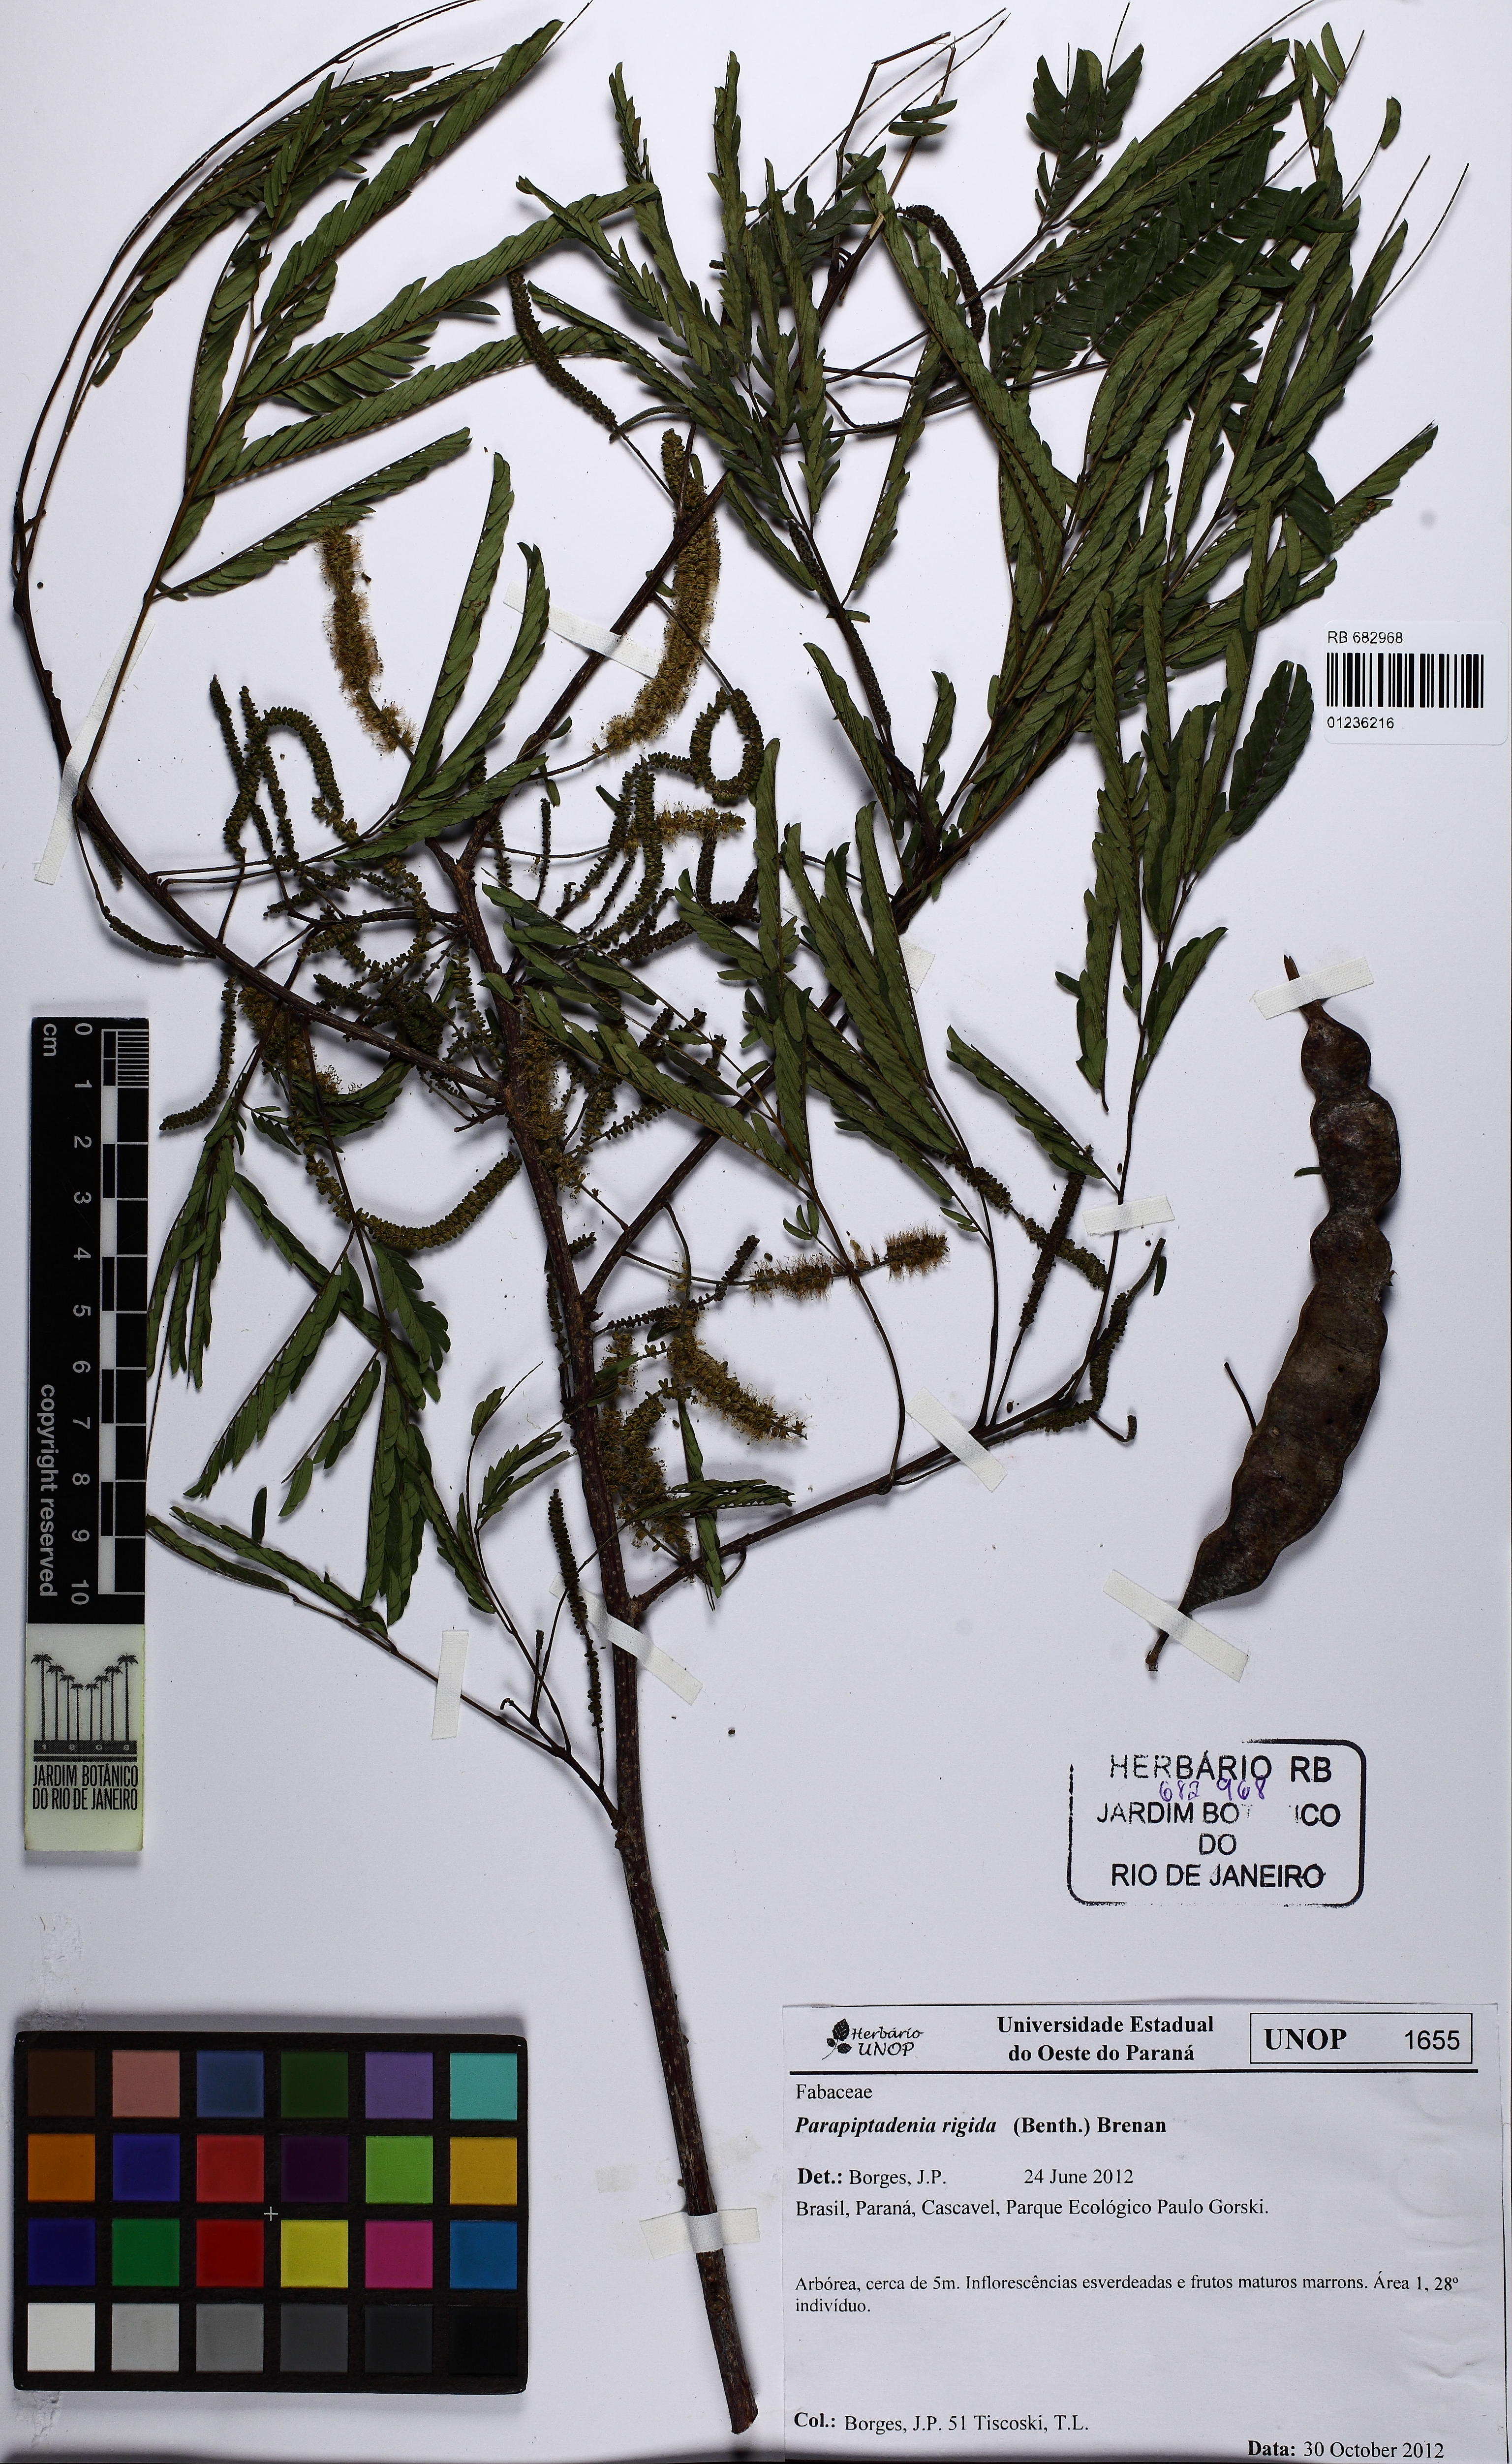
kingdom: Plantae
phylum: Tracheophyta
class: Magnoliopsida
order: Fabales
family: Fabaceae
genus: Parapiptadenia
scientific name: Parapiptadenia rigida
